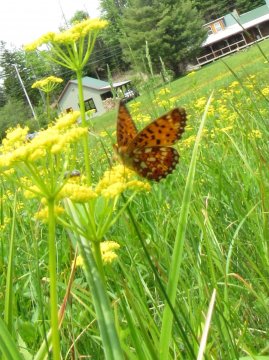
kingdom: Animalia
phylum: Arthropoda
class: Insecta
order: Lepidoptera
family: Nymphalidae
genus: Boloria
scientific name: Boloria selene
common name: Silver-bordered Fritillary
